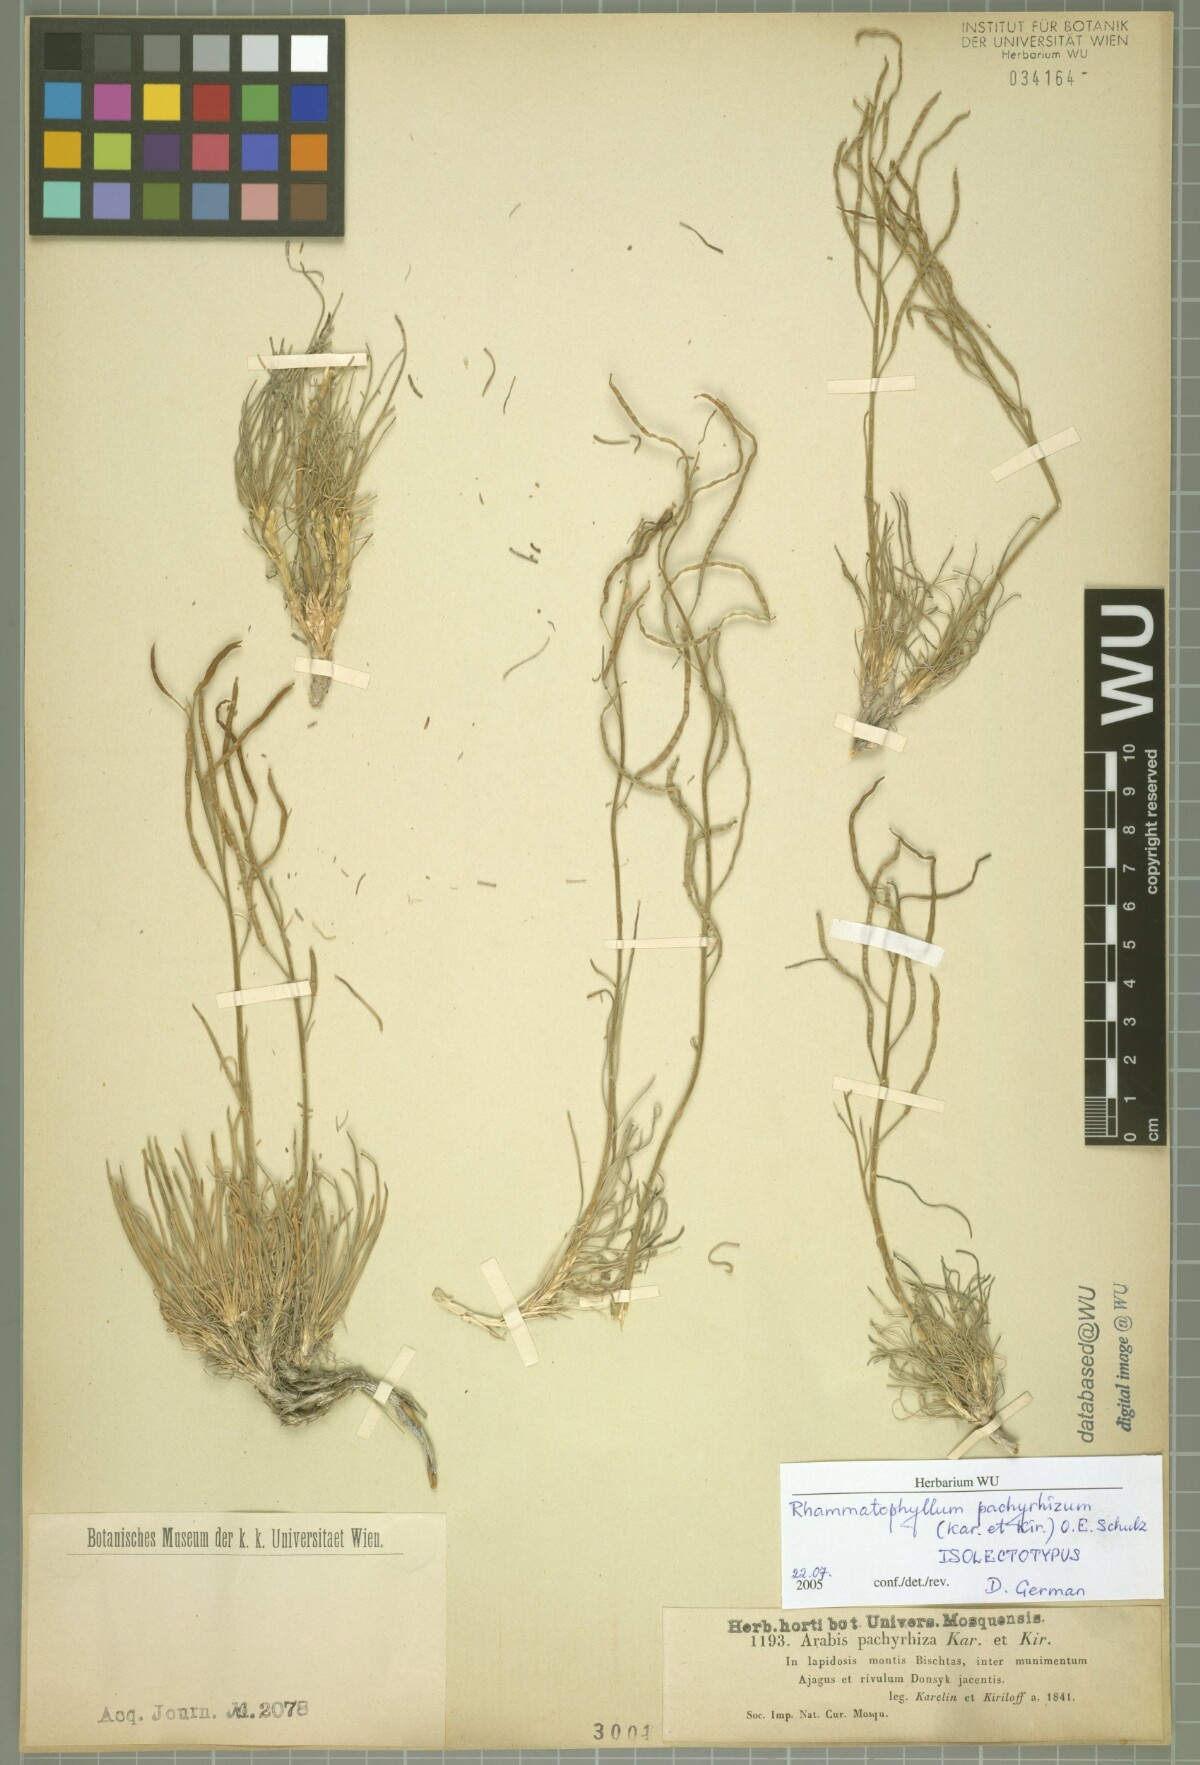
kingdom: Plantae
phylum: Tracheophyta
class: Magnoliopsida
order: Brassicales
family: Brassicaceae
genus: Rhammatophyllum
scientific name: Rhammatophyllum pachyrhizum
